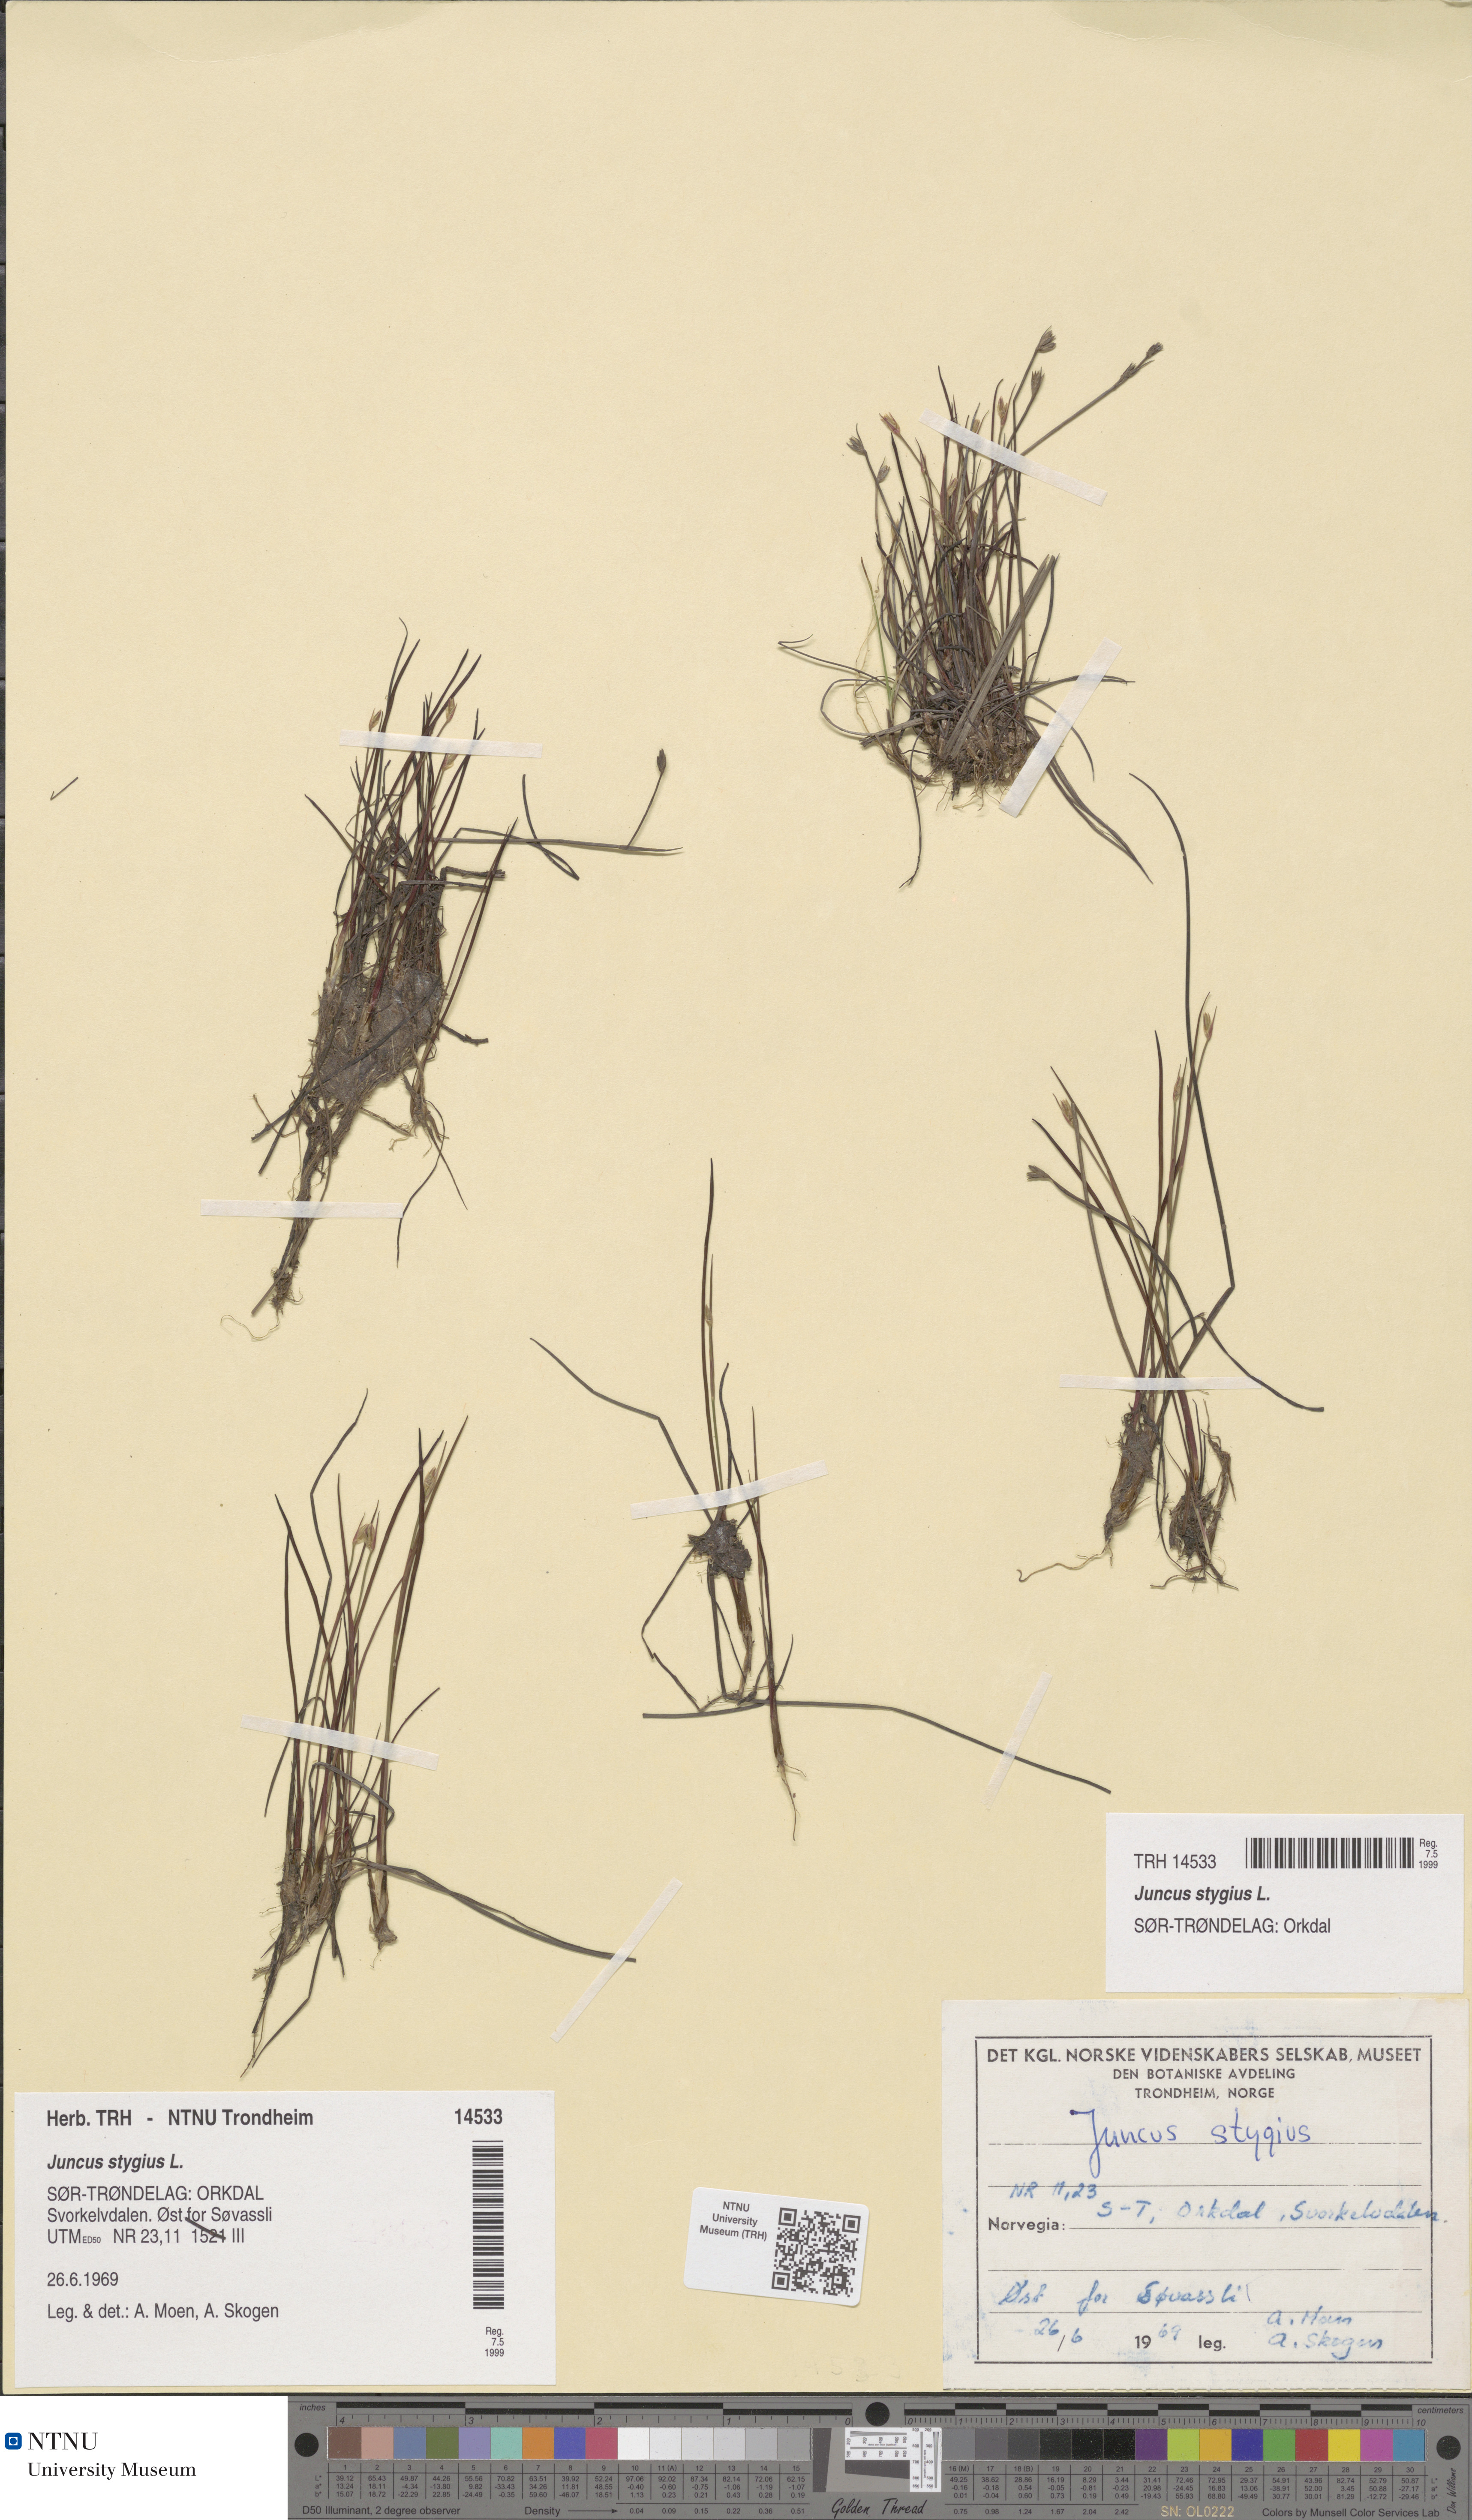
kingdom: Plantae
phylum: Tracheophyta
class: Liliopsida
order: Poales
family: Juncaceae
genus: Juncus
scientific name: Juncus stygius
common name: Bog rush
